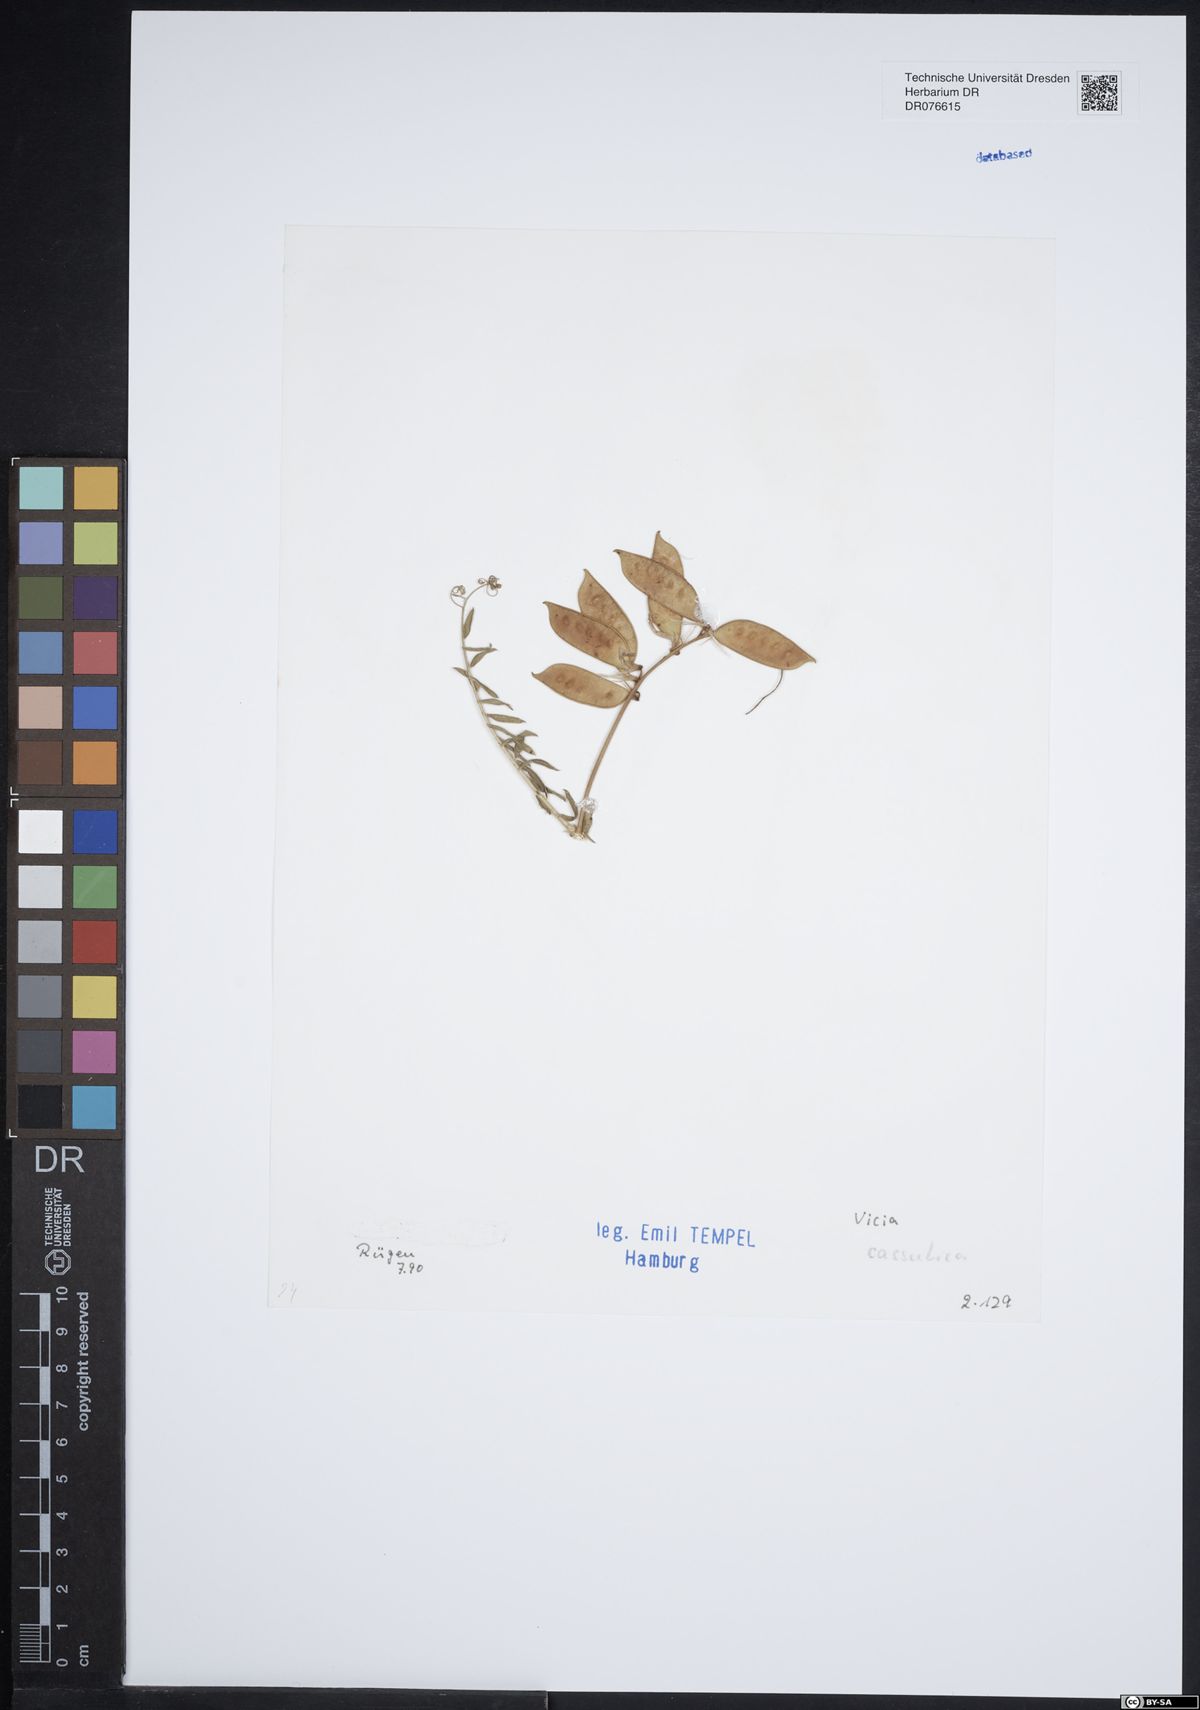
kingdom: Plantae
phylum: Tracheophyta
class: Magnoliopsida
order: Fabales
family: Fabaceae
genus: Vicia
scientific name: Vicia cassubica
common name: Danzig vetch
